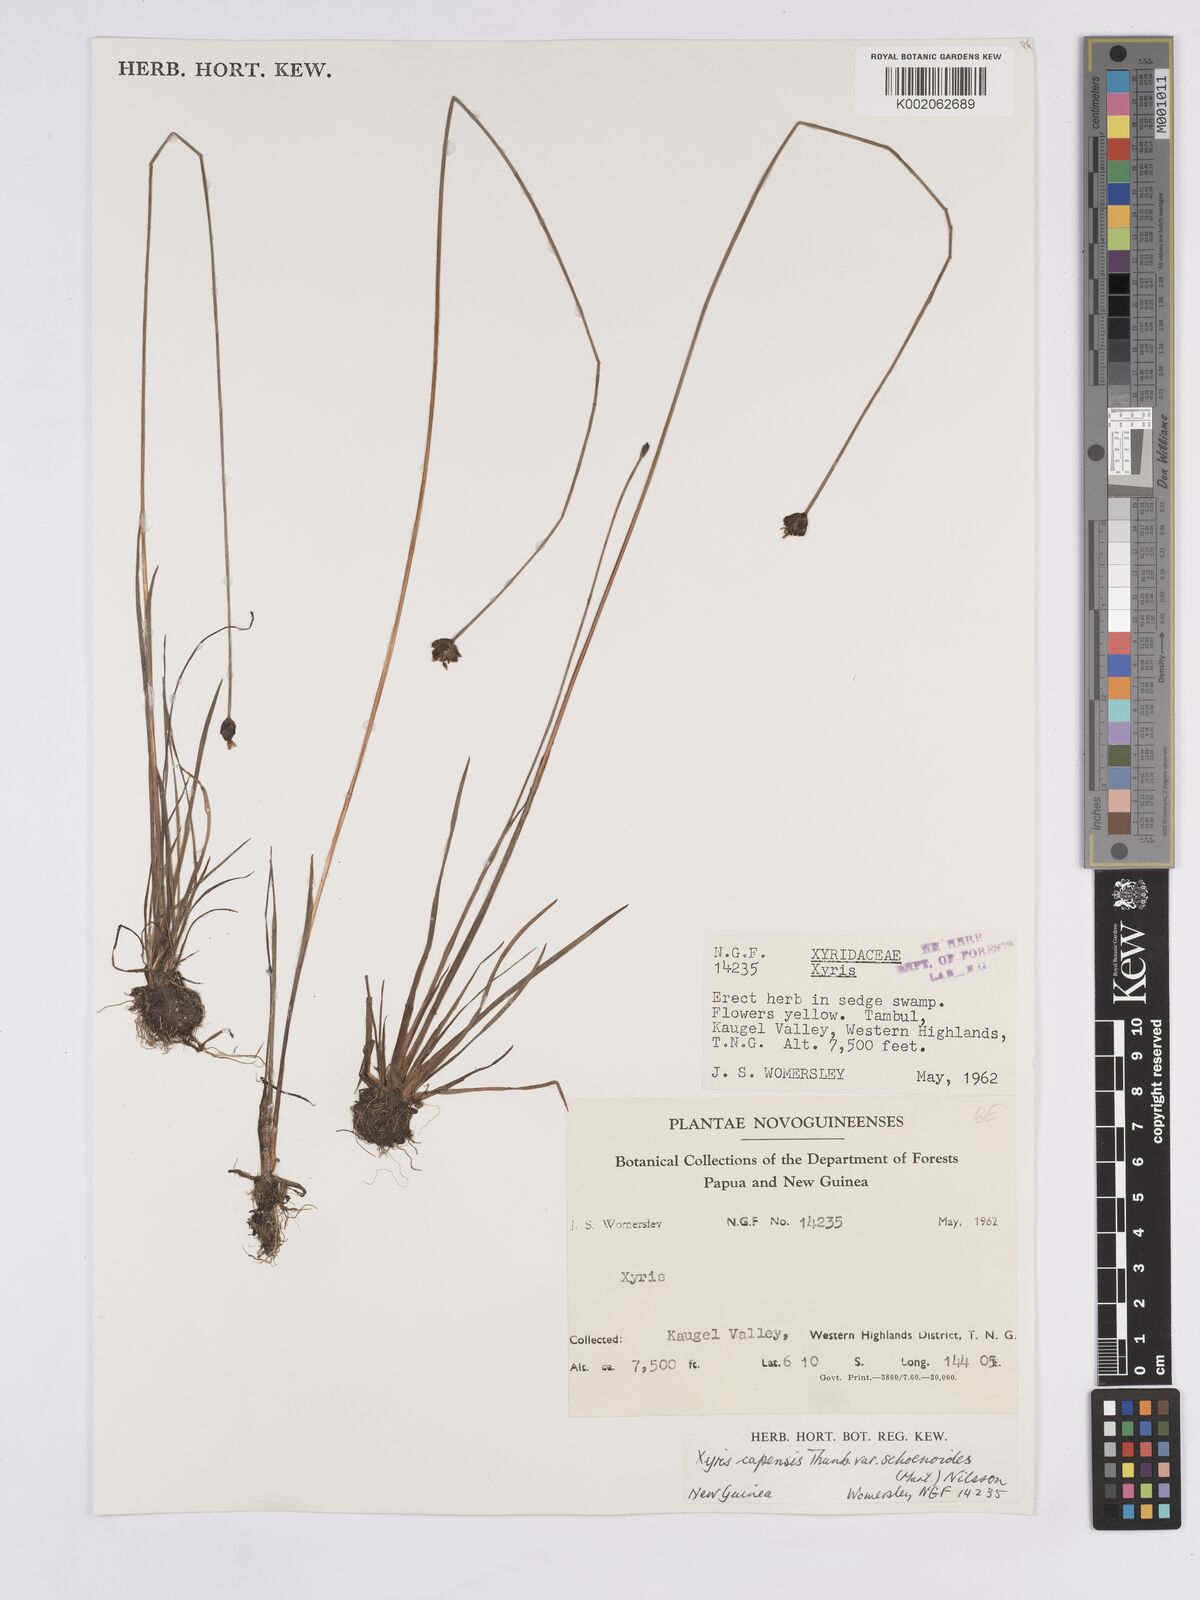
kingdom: Plantae
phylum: Tracheophyta
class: Liliopsida
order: Poales
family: Xyridaceae
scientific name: Xyridaceae
